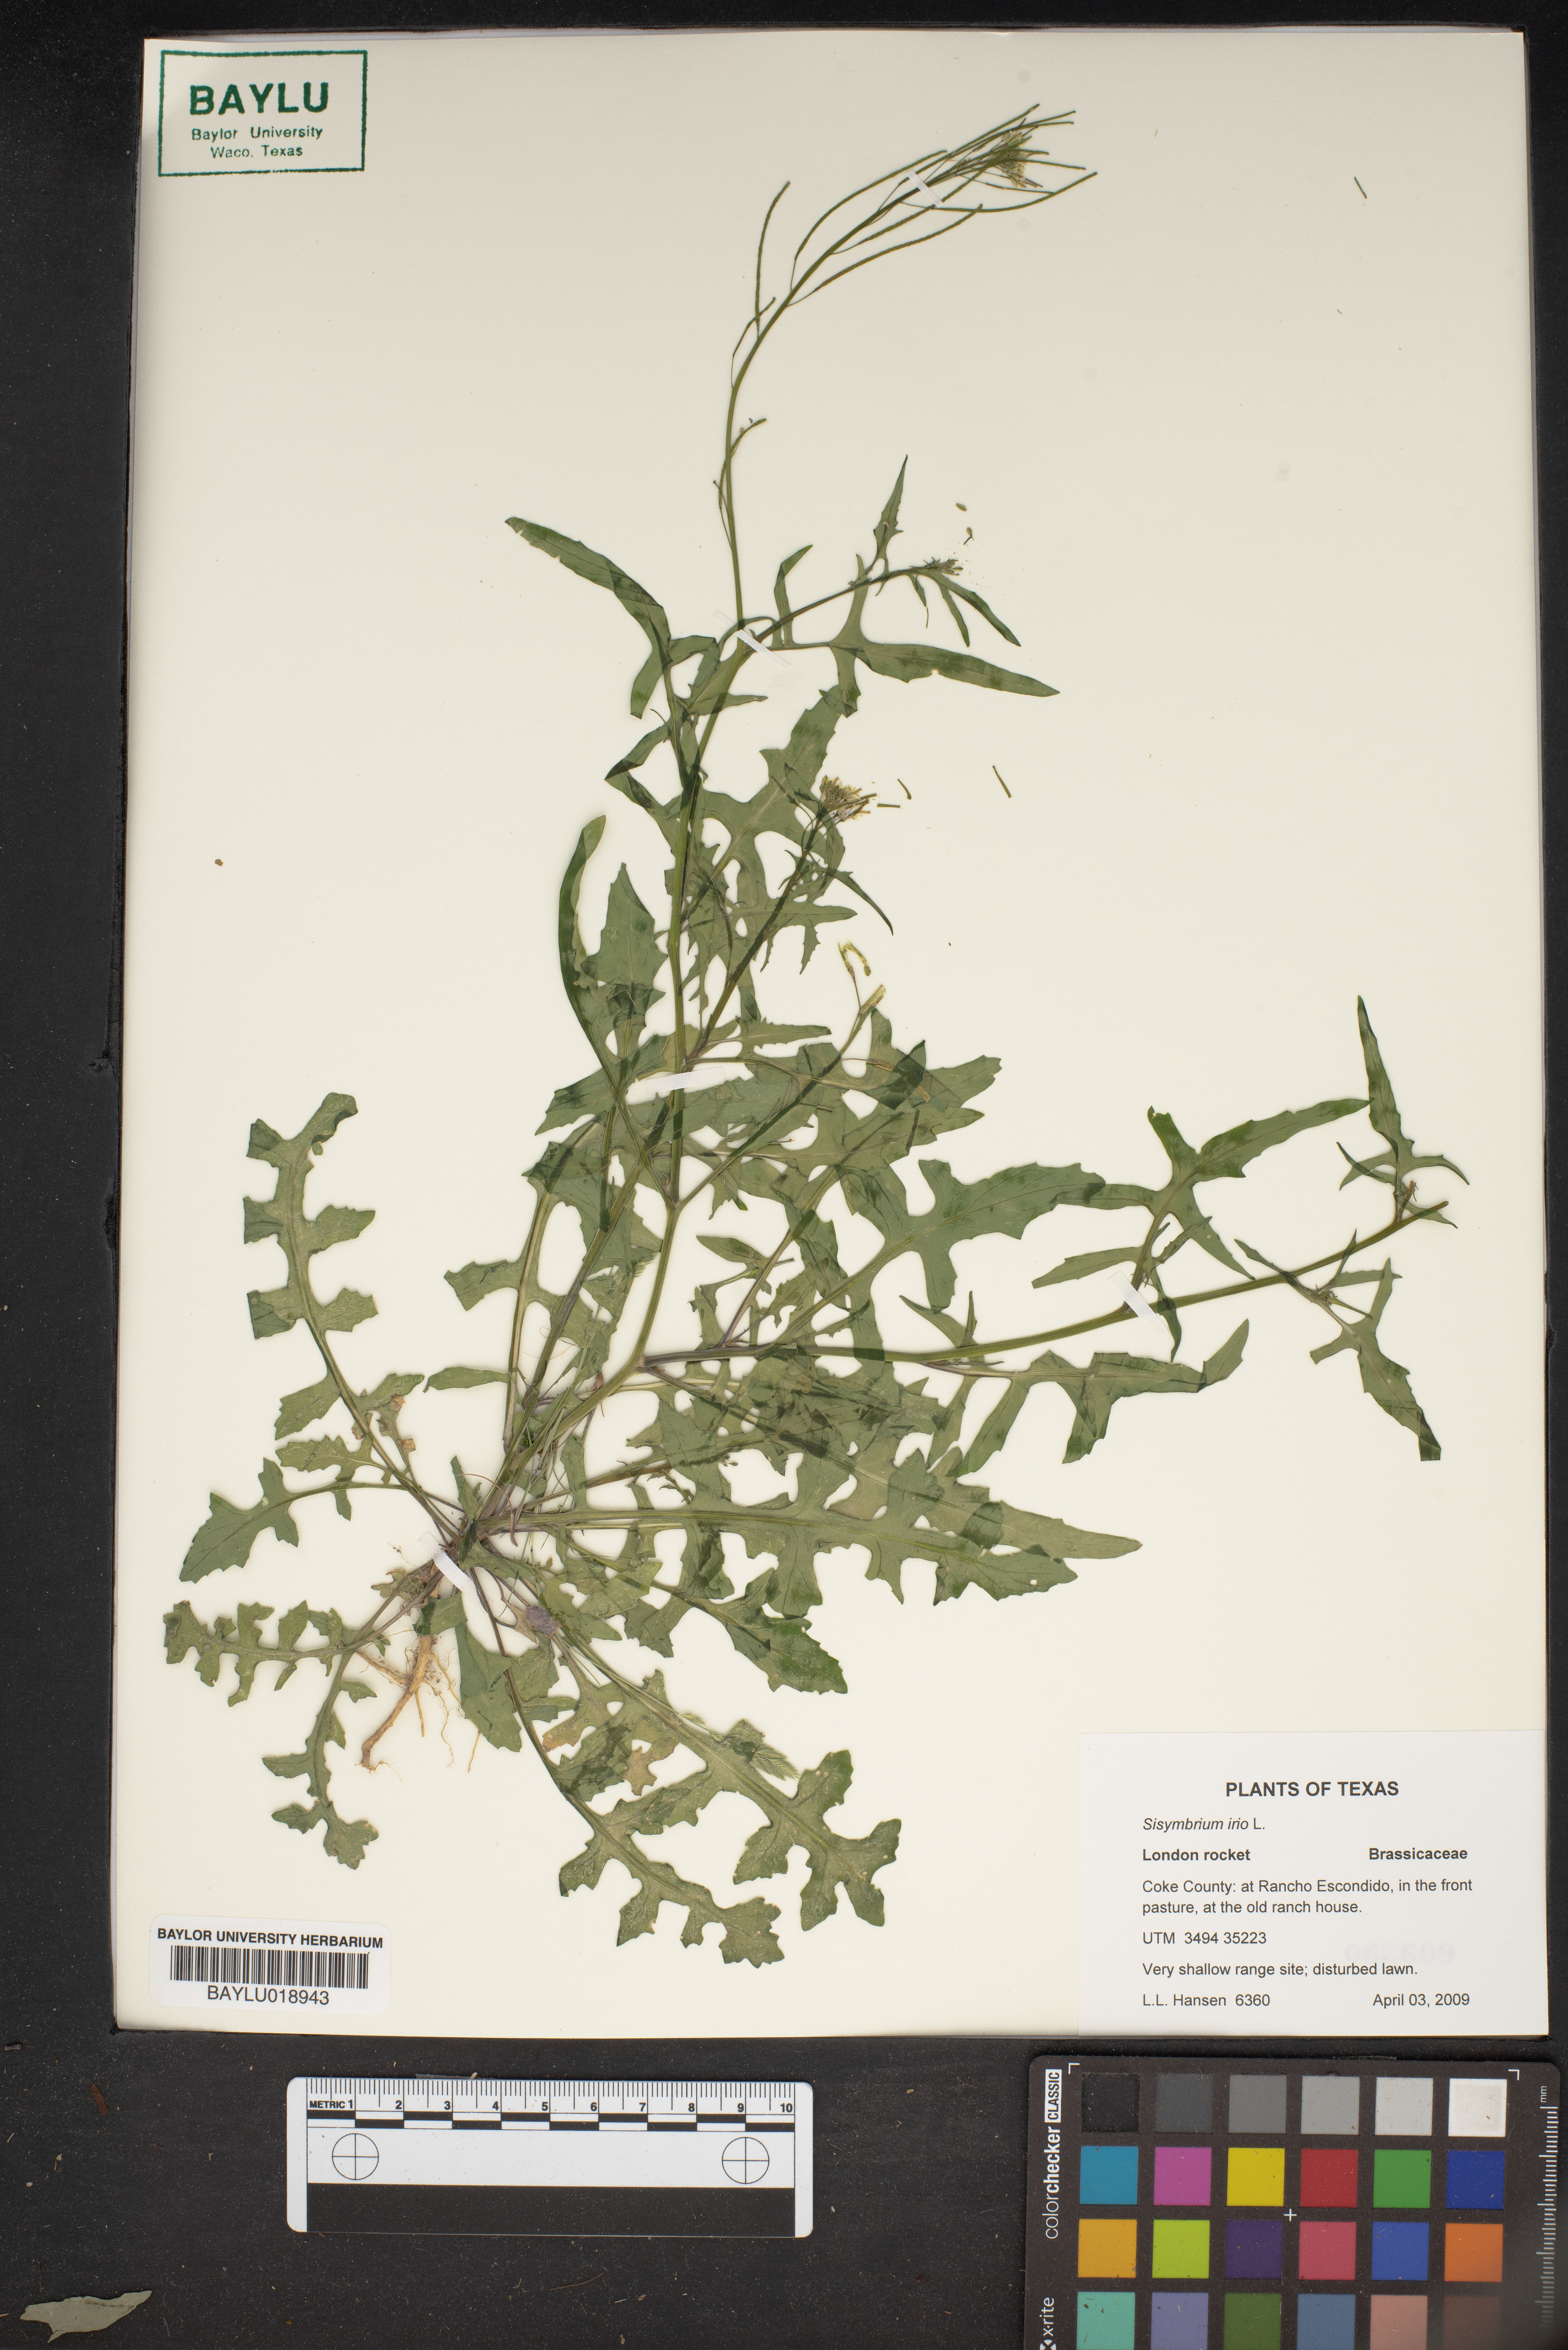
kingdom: Plantae
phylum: Tracheophyta
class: Magnoliopsida
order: Brassicales
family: Brassicaceae
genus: Sisymbrium
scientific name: Sisymbrium irio
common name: London rocket
